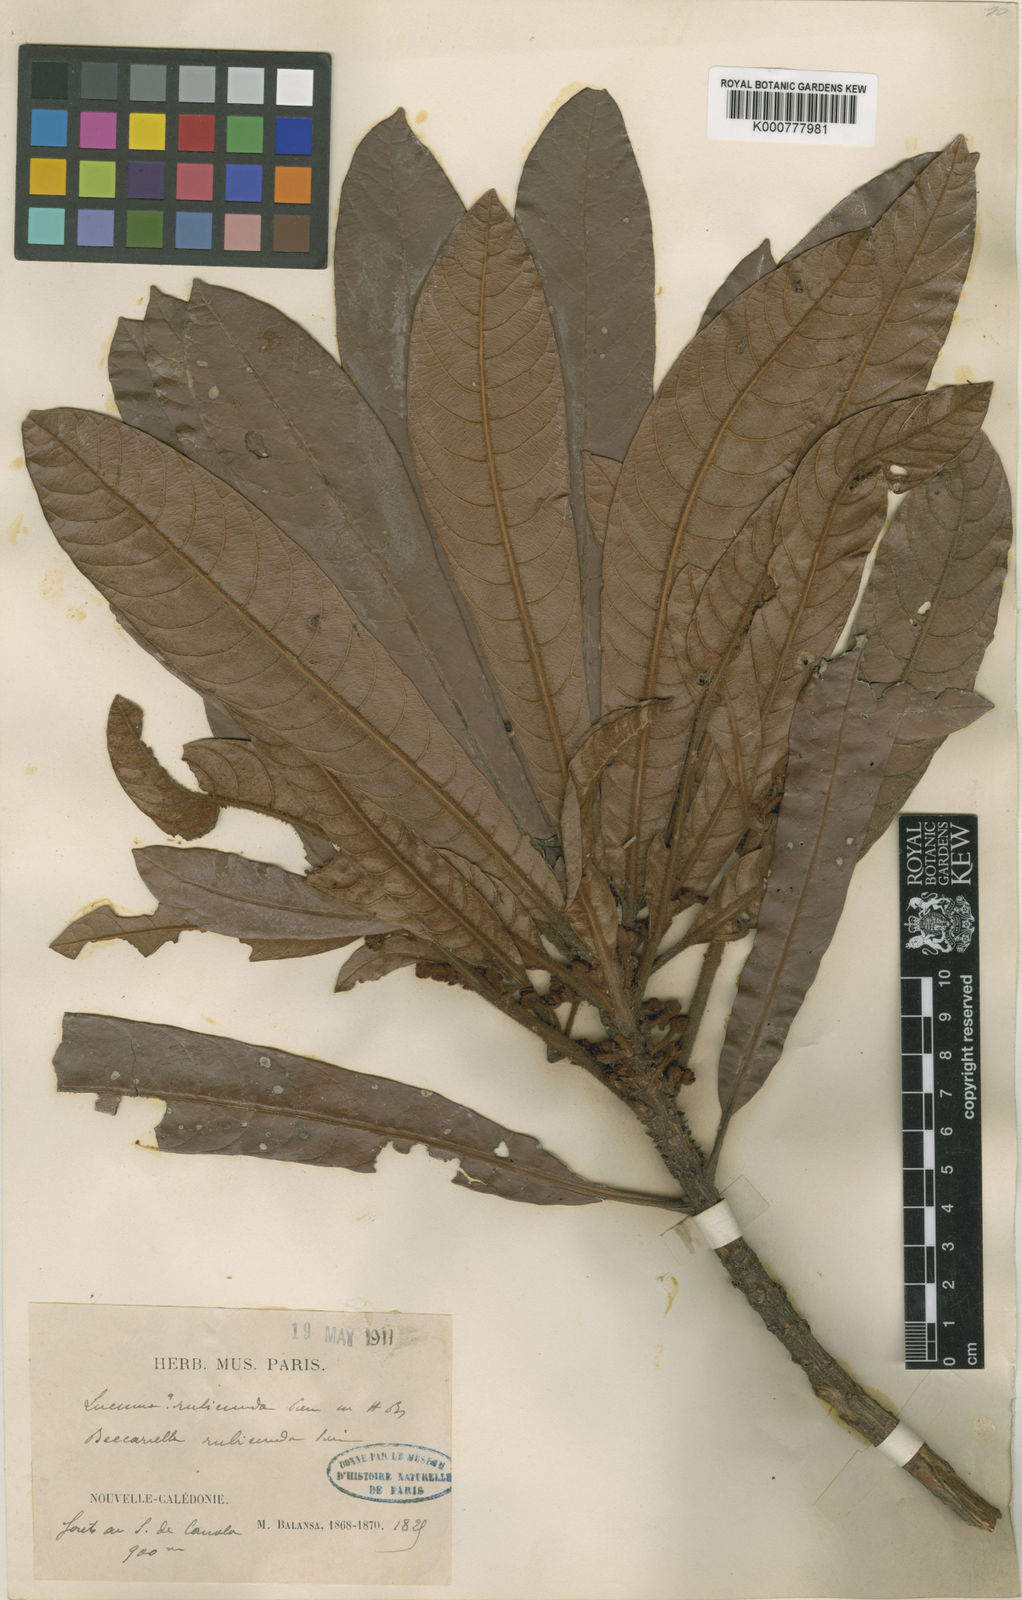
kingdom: Plantae
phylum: Tracheophyta
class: Magnoliopsida
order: Ericales
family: Sapotaceae
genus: Pleioluma
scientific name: Pleioluma rubicunda
